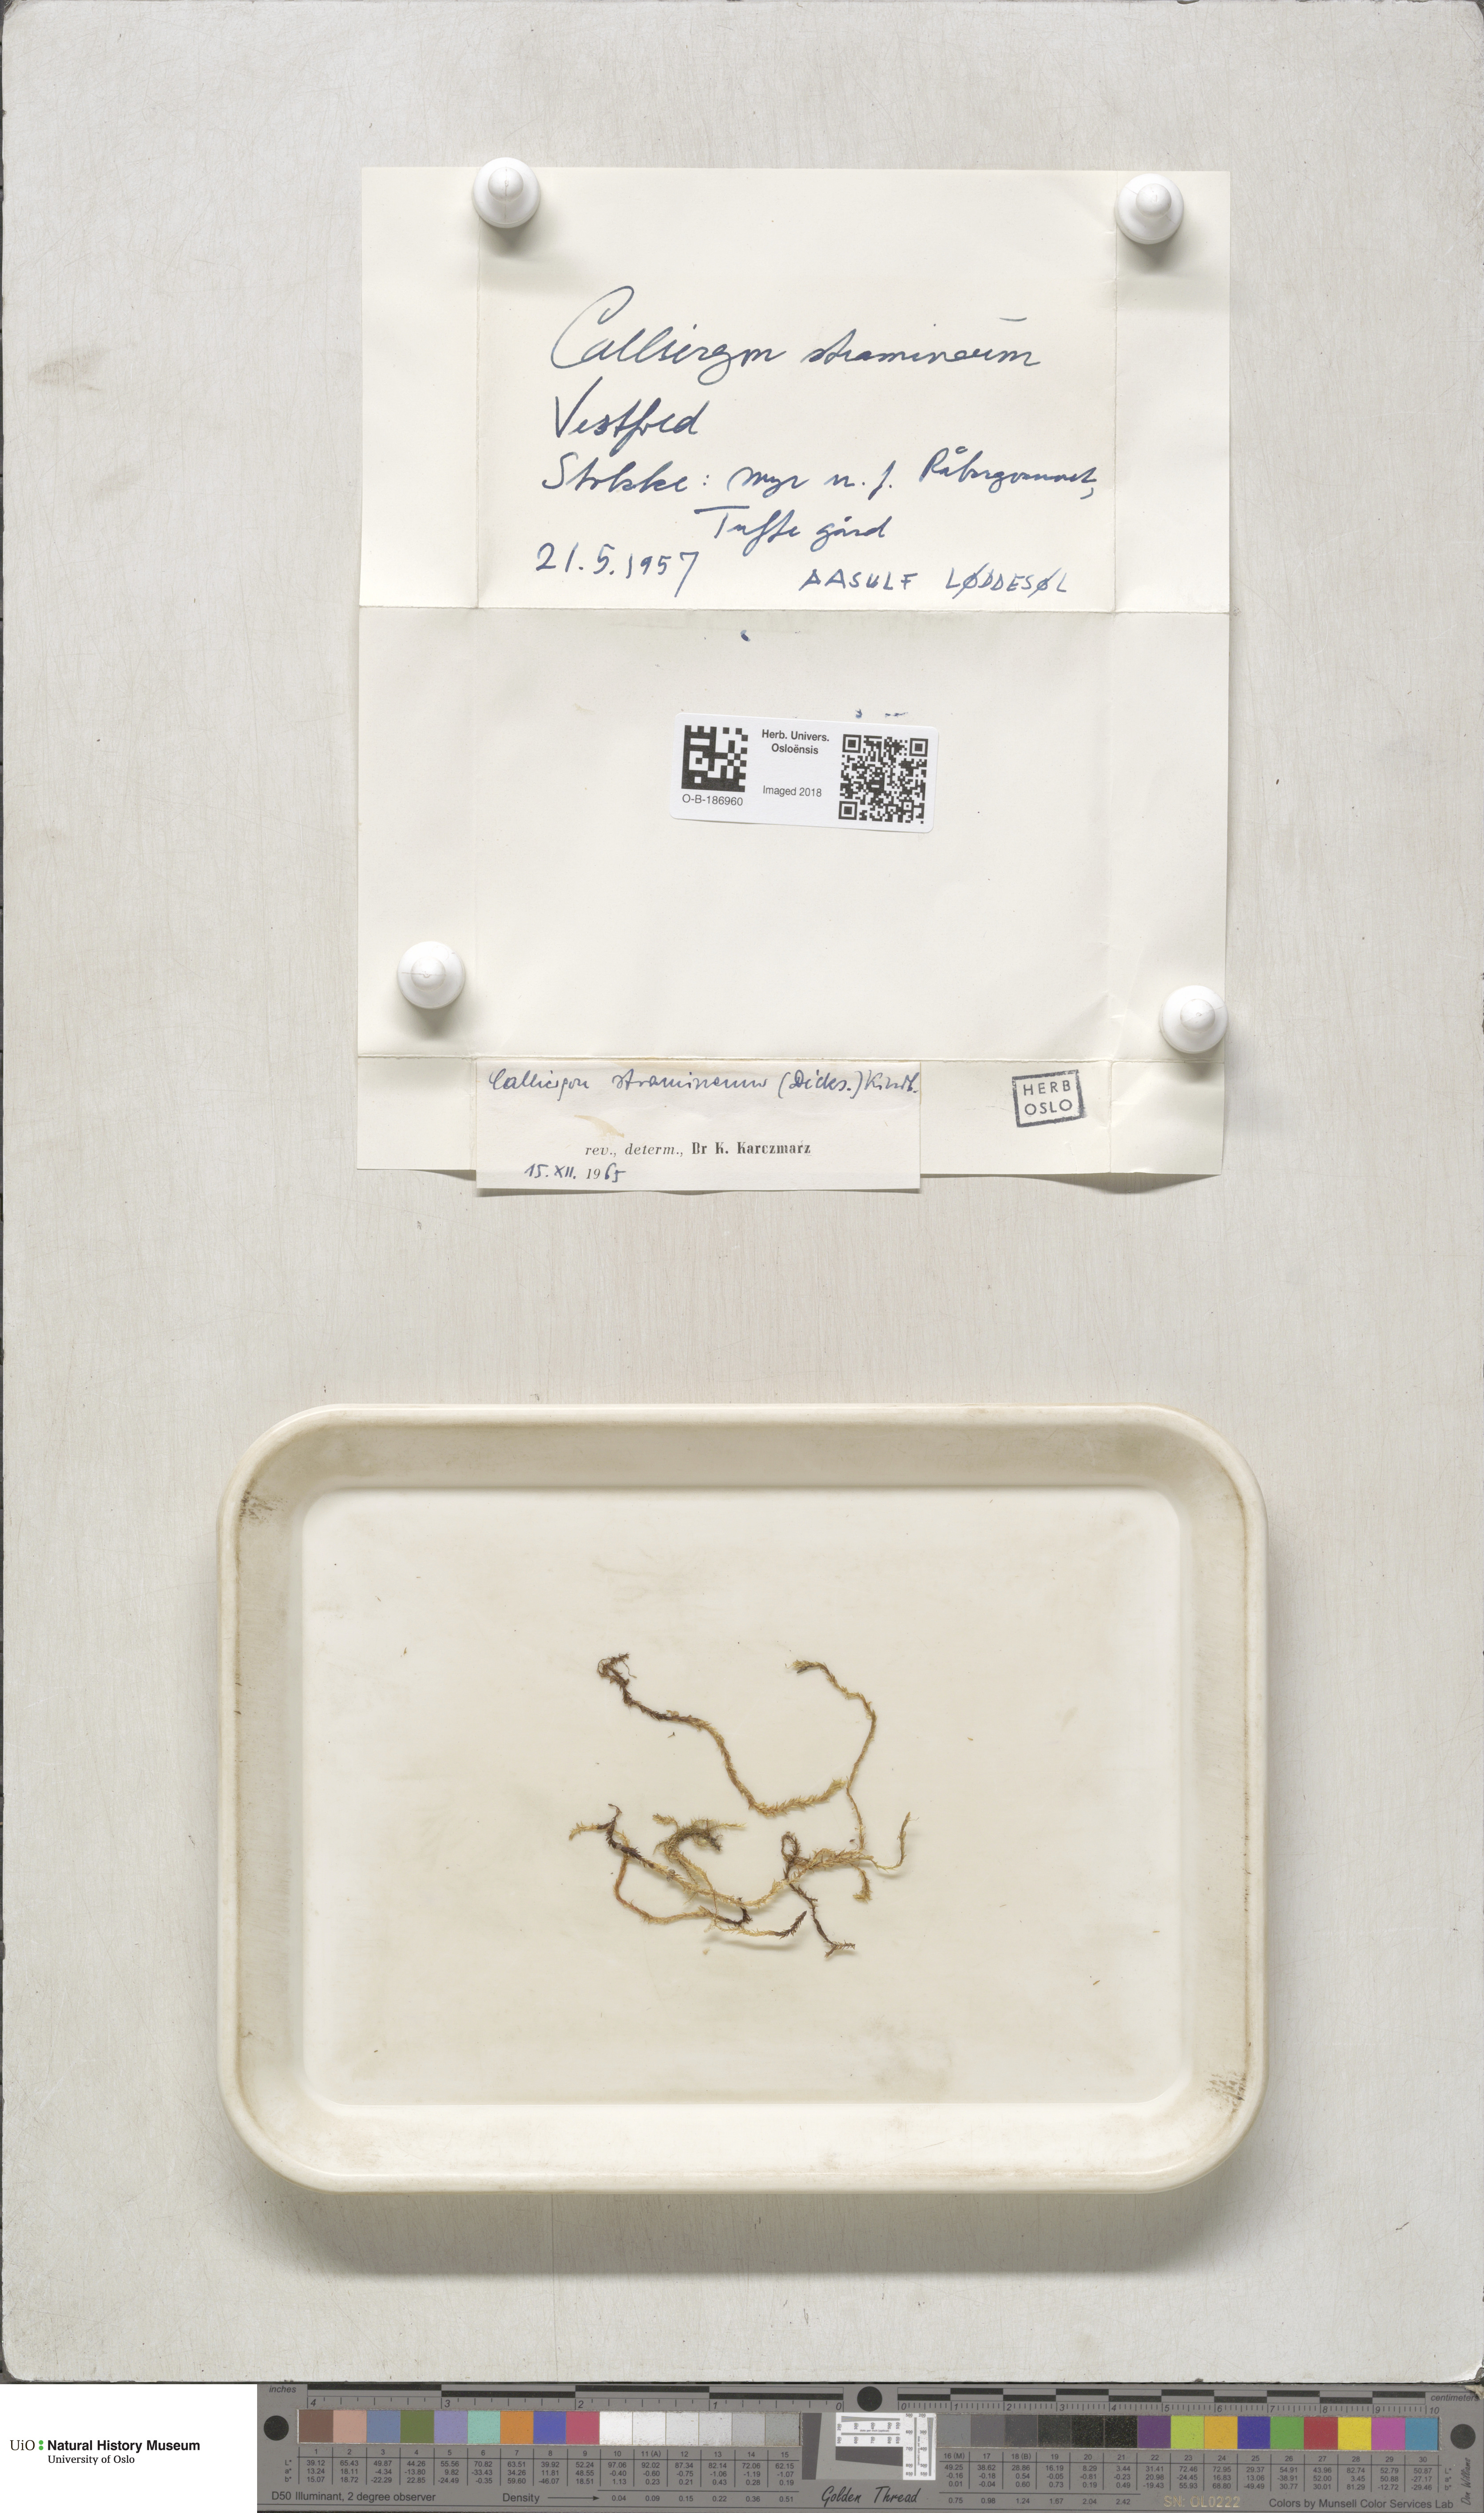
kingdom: Plantae
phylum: Bryophyta
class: Bryopsida
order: Hypnales
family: Calliergonaceae
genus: Straminergon
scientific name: Straminergon stramineum
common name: Straw moss
